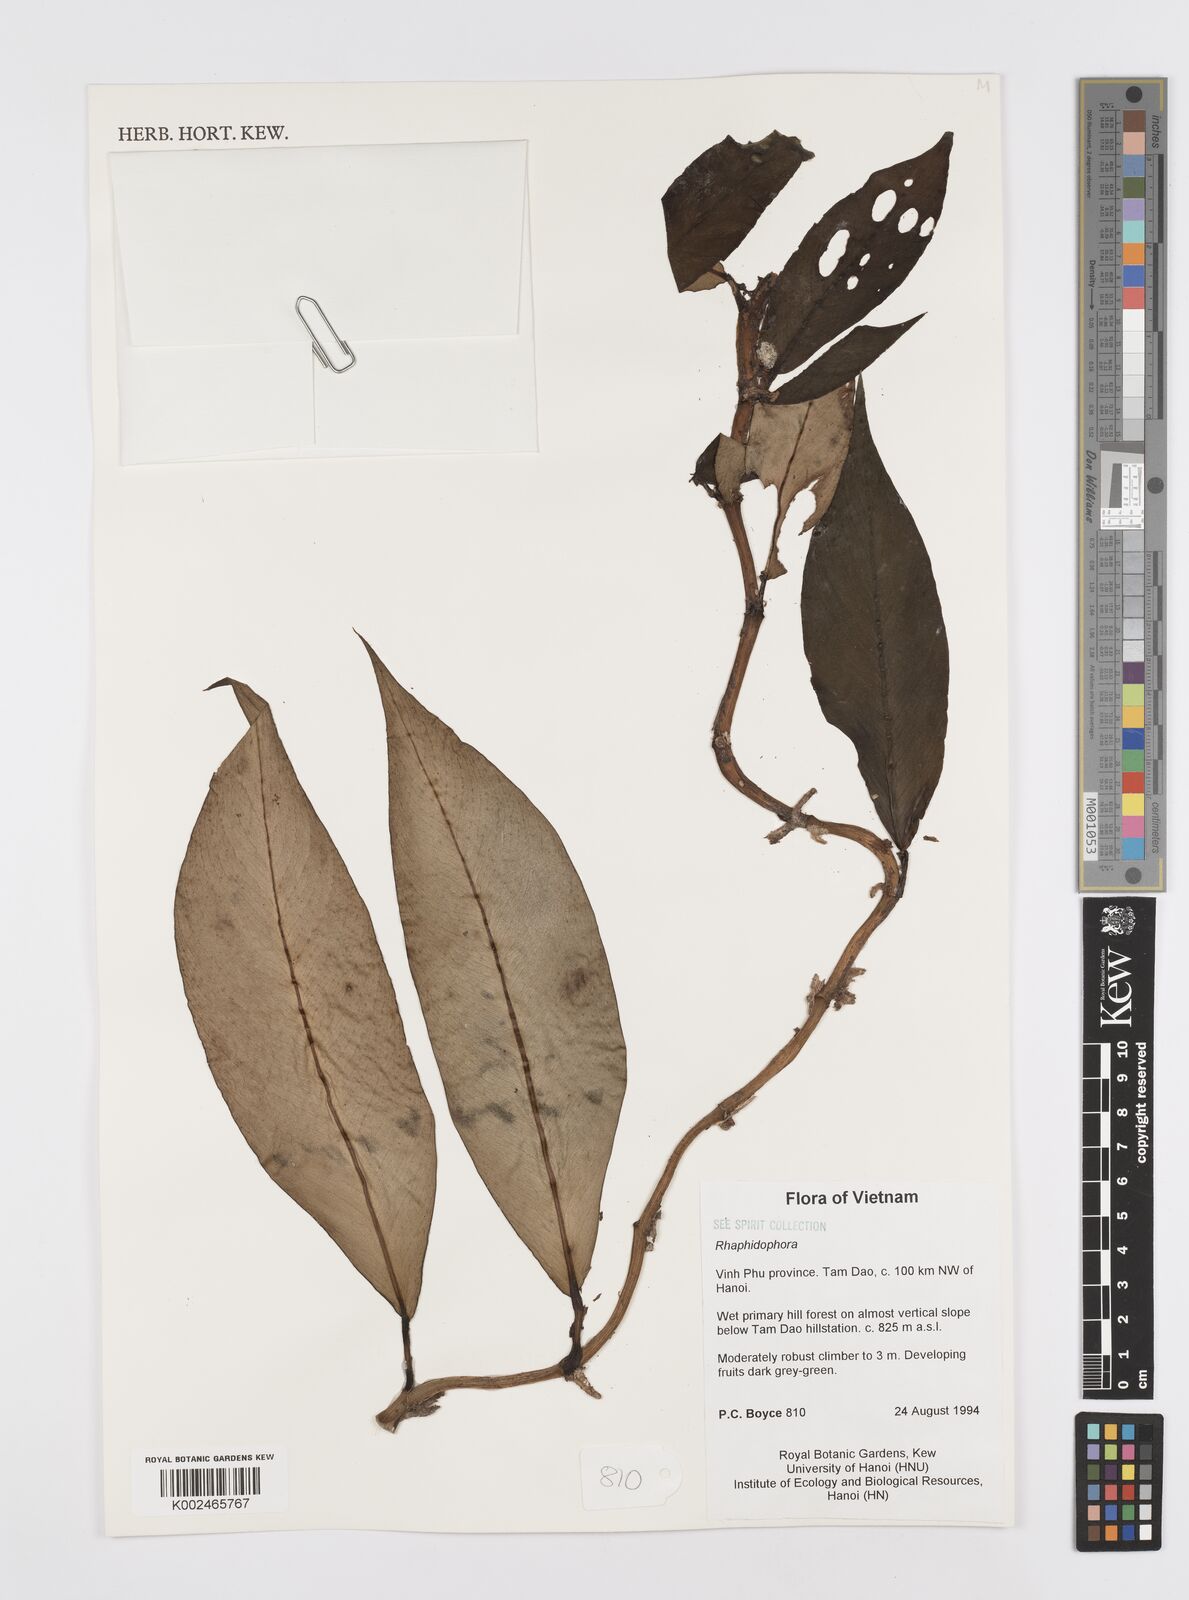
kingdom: Plantae
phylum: Tracheophyta
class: Liliopsida
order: Alismatales
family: Araceae
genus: Rhaphidophora
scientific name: Rhaphidophora
